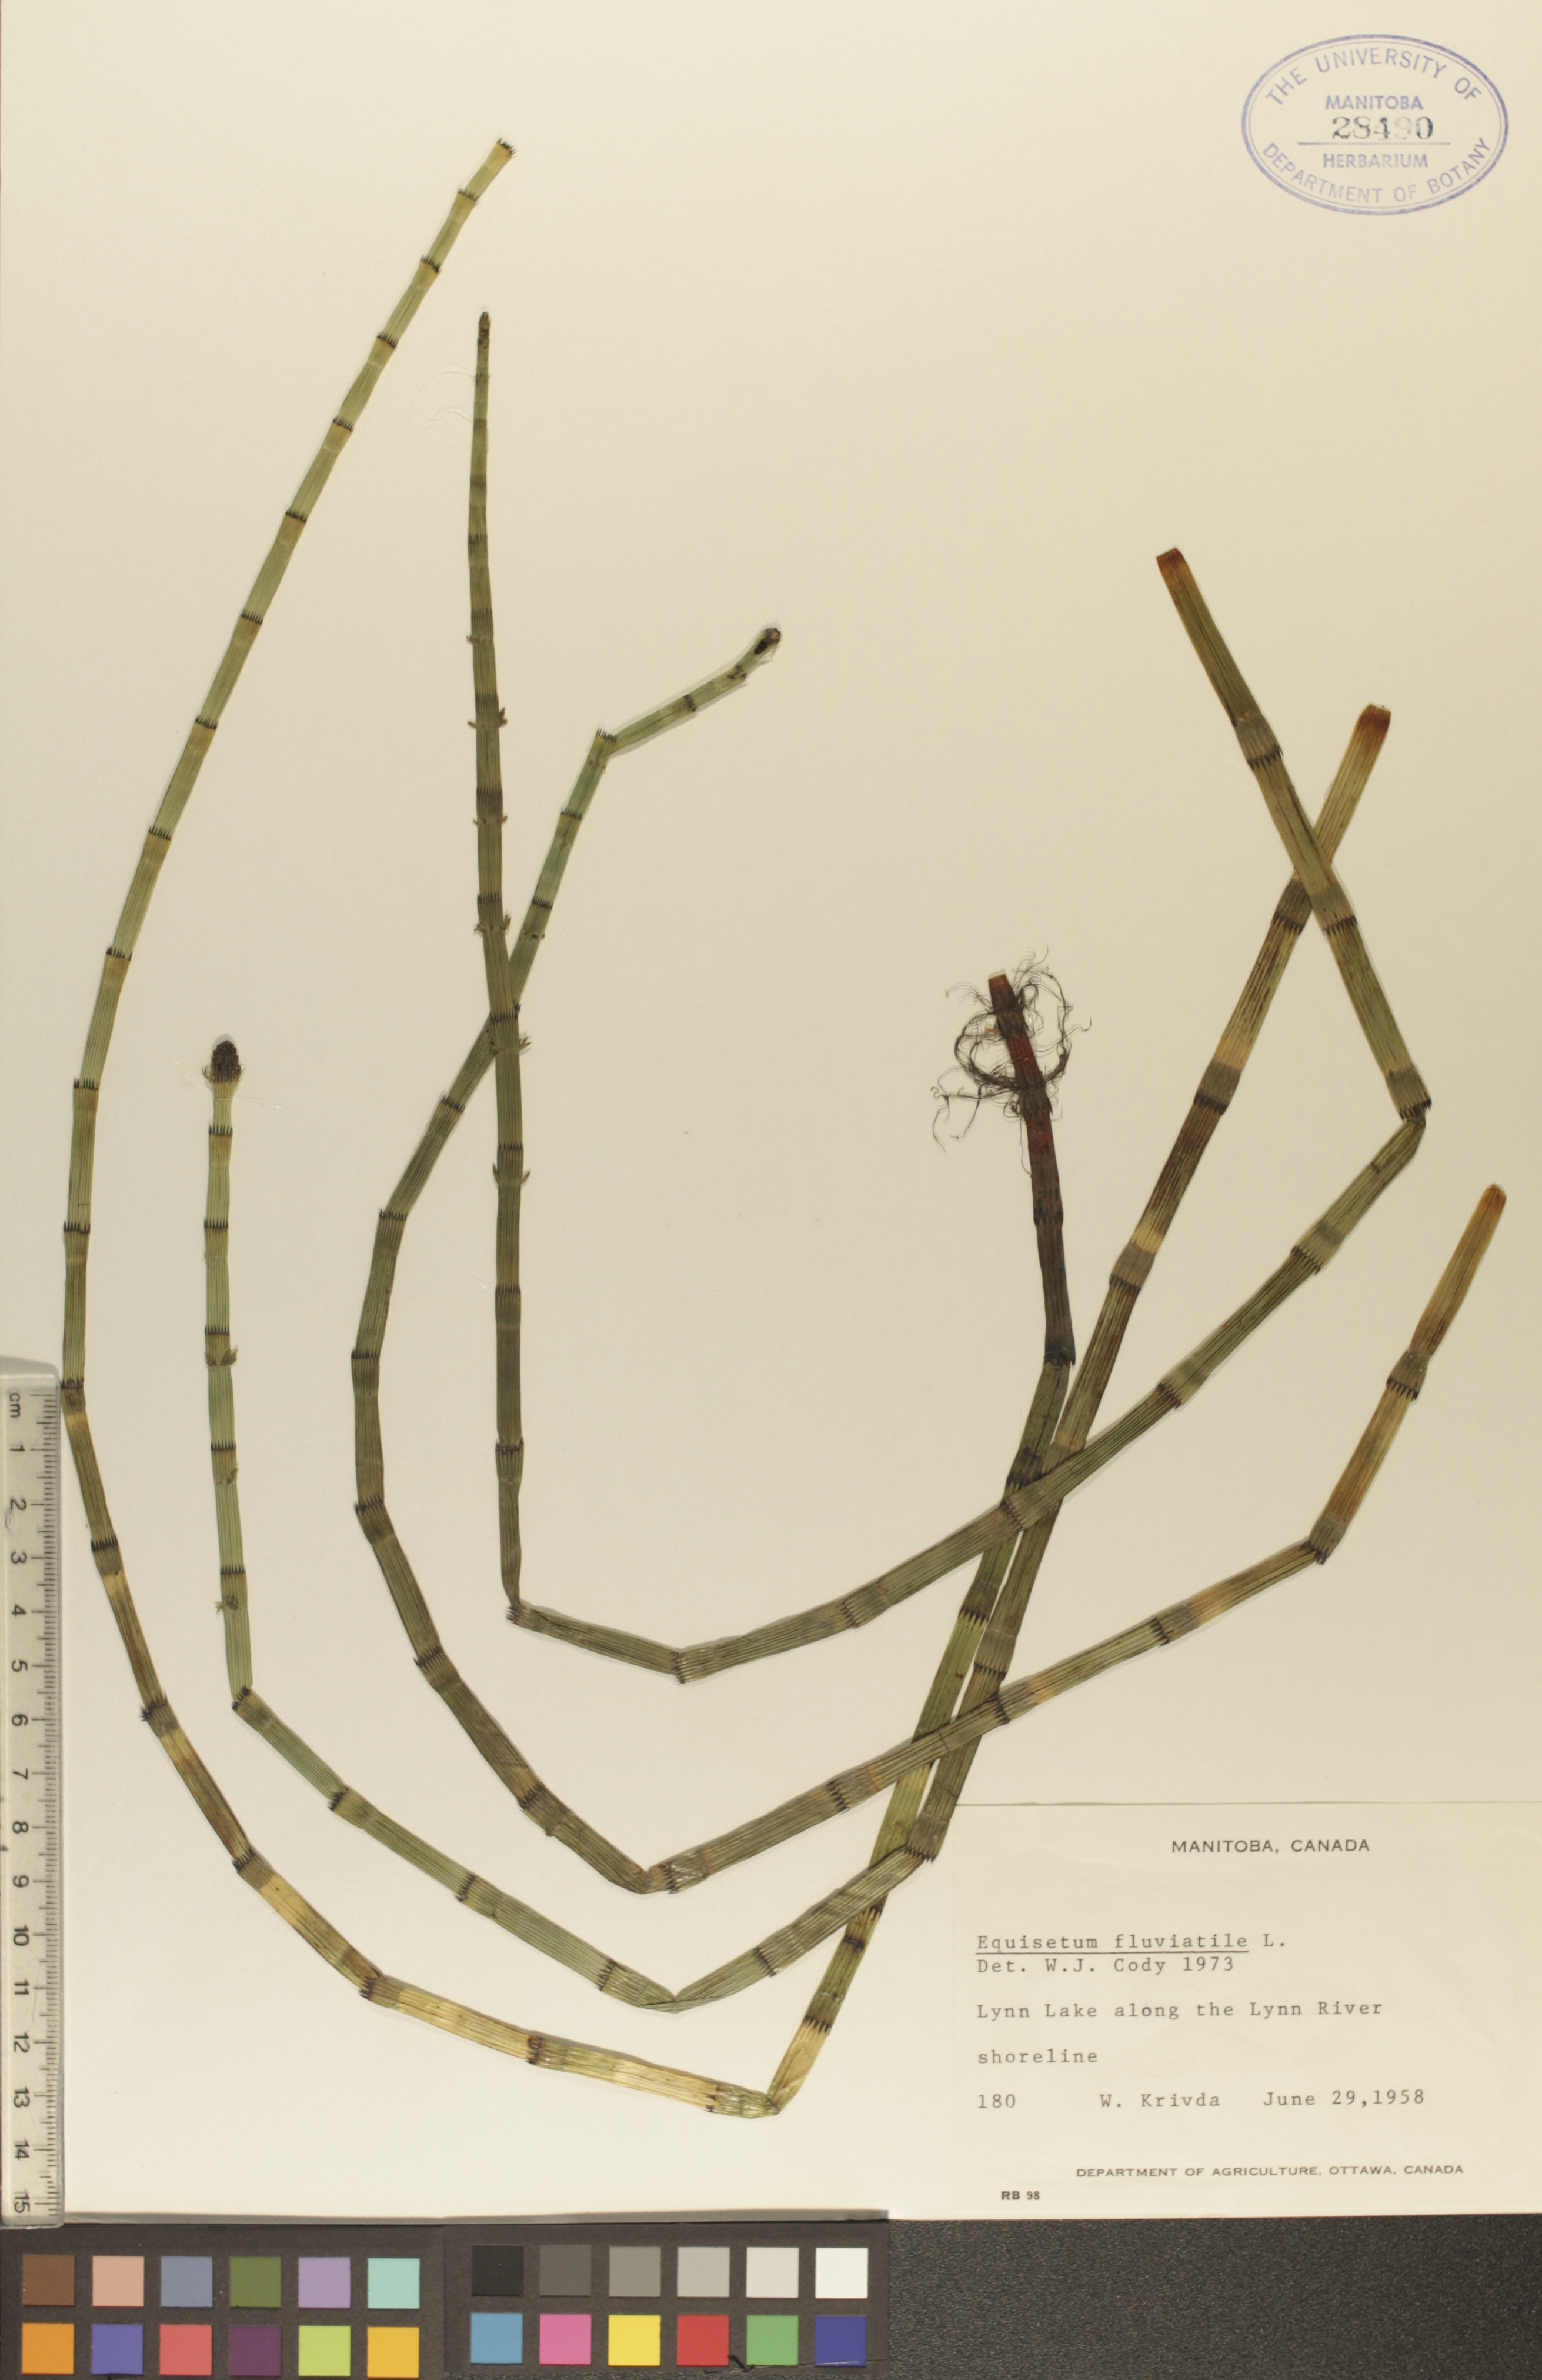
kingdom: Plantae
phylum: Tracheophyta
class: Polypodiopsida
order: Equisetales
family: Equisetaceae
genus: Equisetum
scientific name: Equisetum fluviatile
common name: Water horsetail
